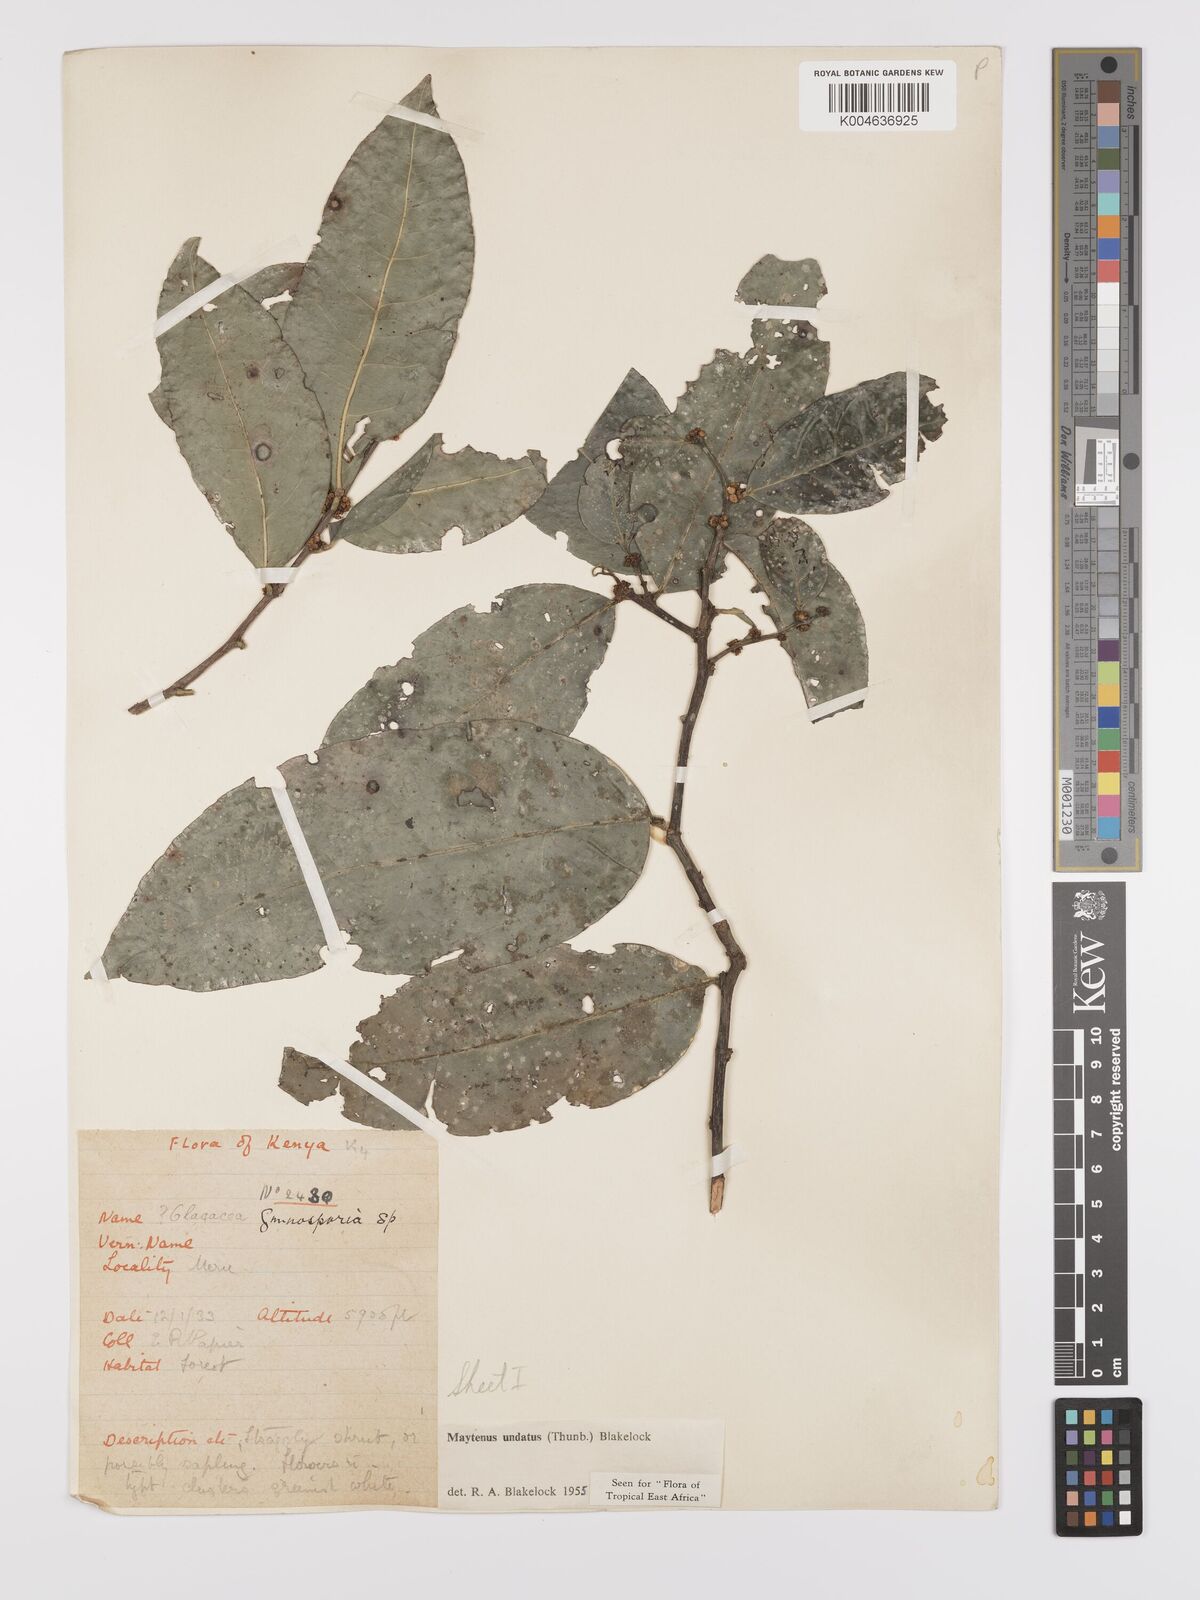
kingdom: Plantae
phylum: Tracheophyta
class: Magnoliopsida
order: Celastrales
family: Celastraceae
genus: Gymnosporia
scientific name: Gymnosporia undata
